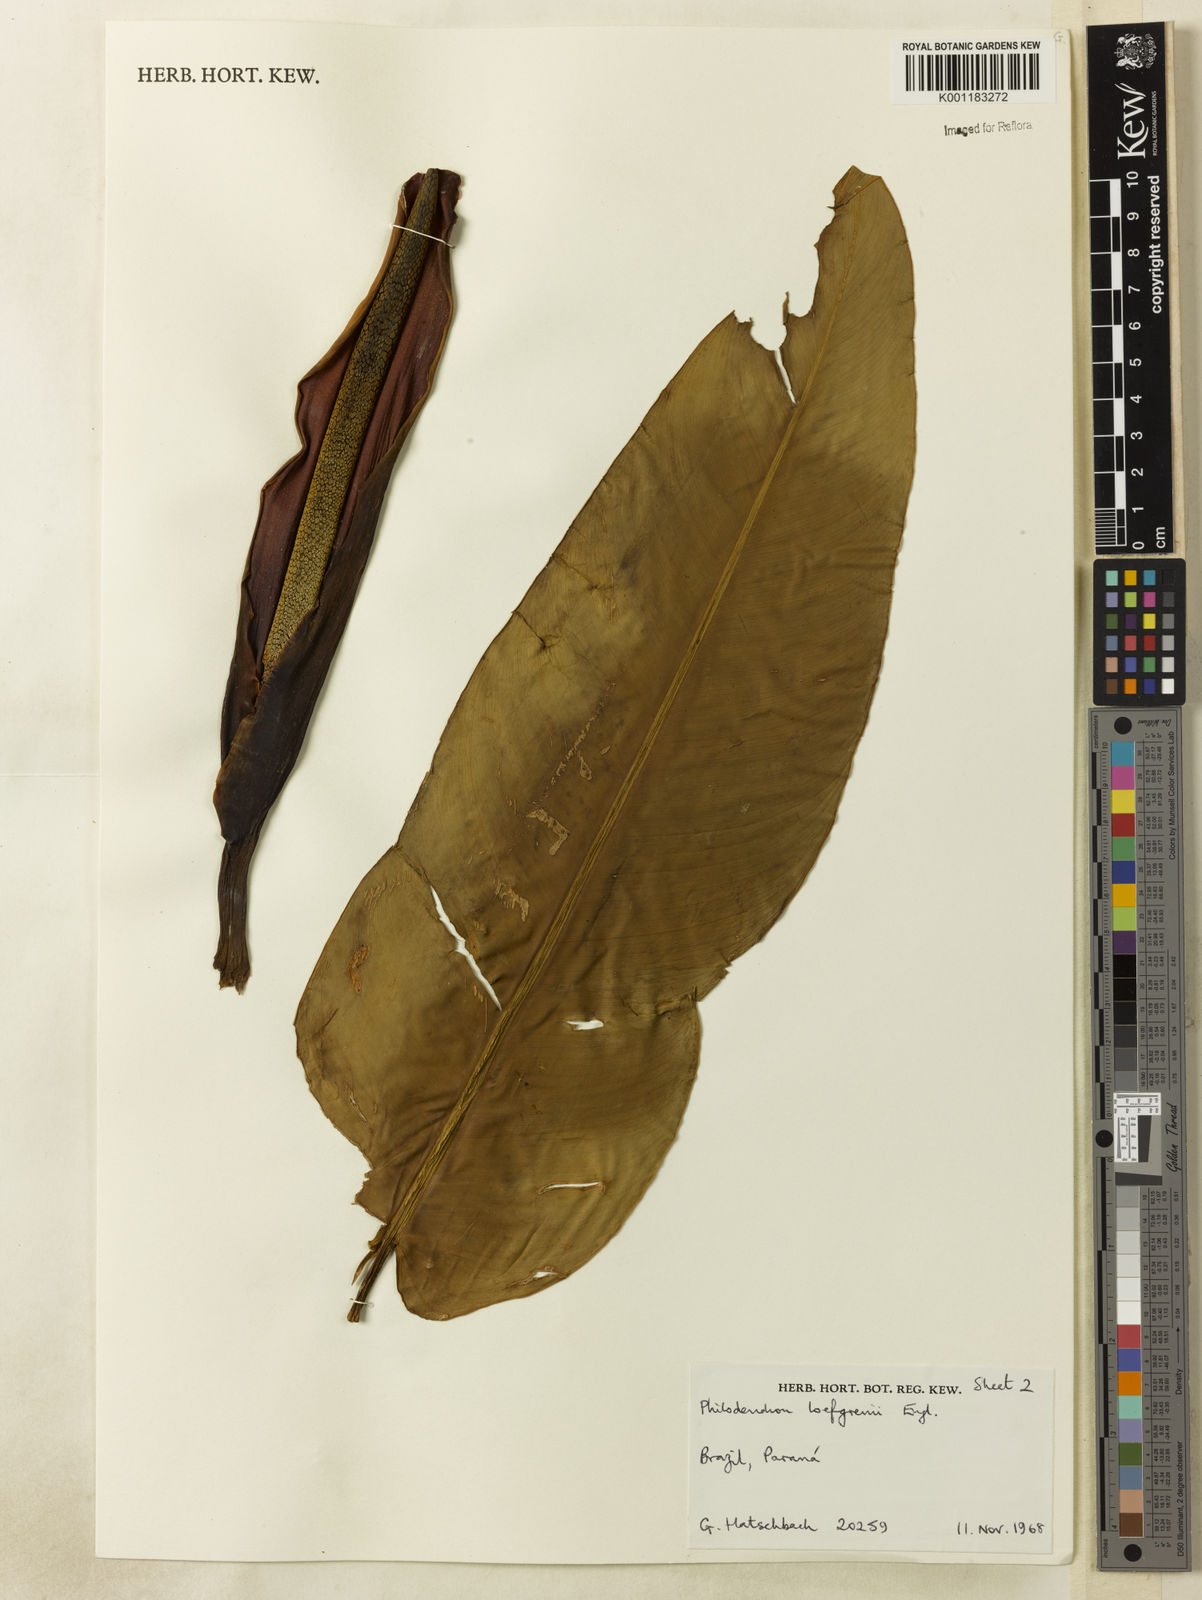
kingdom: Plantae
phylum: Tracheophyta
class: Liliopsida
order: Alismatales
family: Araceae
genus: Philodendron
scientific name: Philodendron loefgrenii
